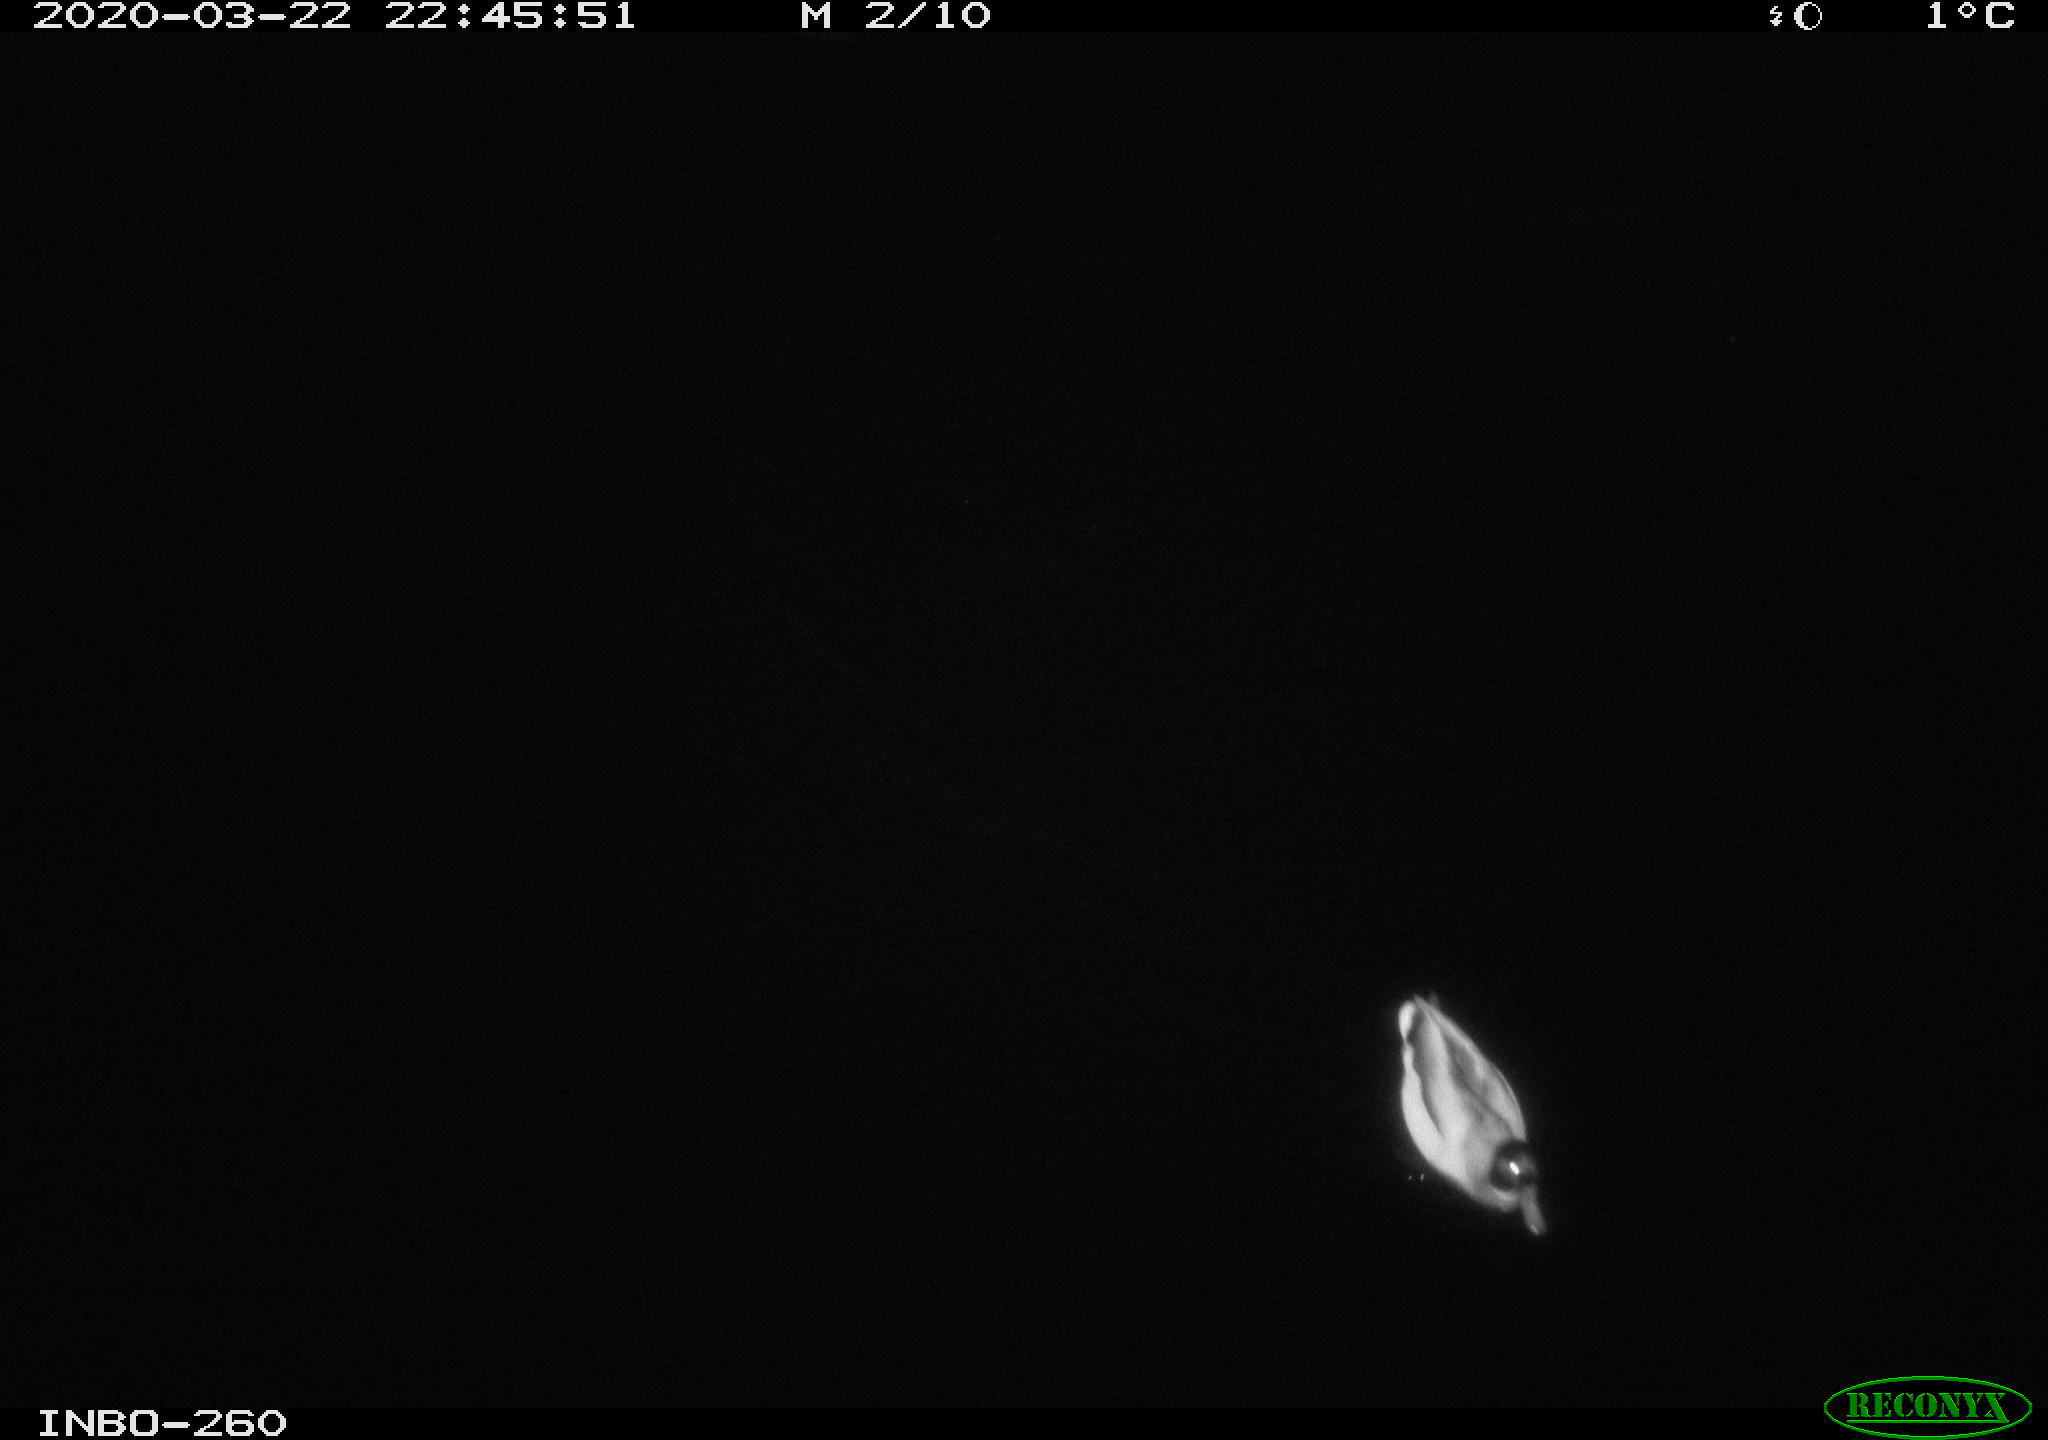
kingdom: Animalia
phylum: Chordata
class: Aves
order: Anseriformes
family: Anatidae
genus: Anas
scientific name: Anas platyrhynchos
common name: Mallard
